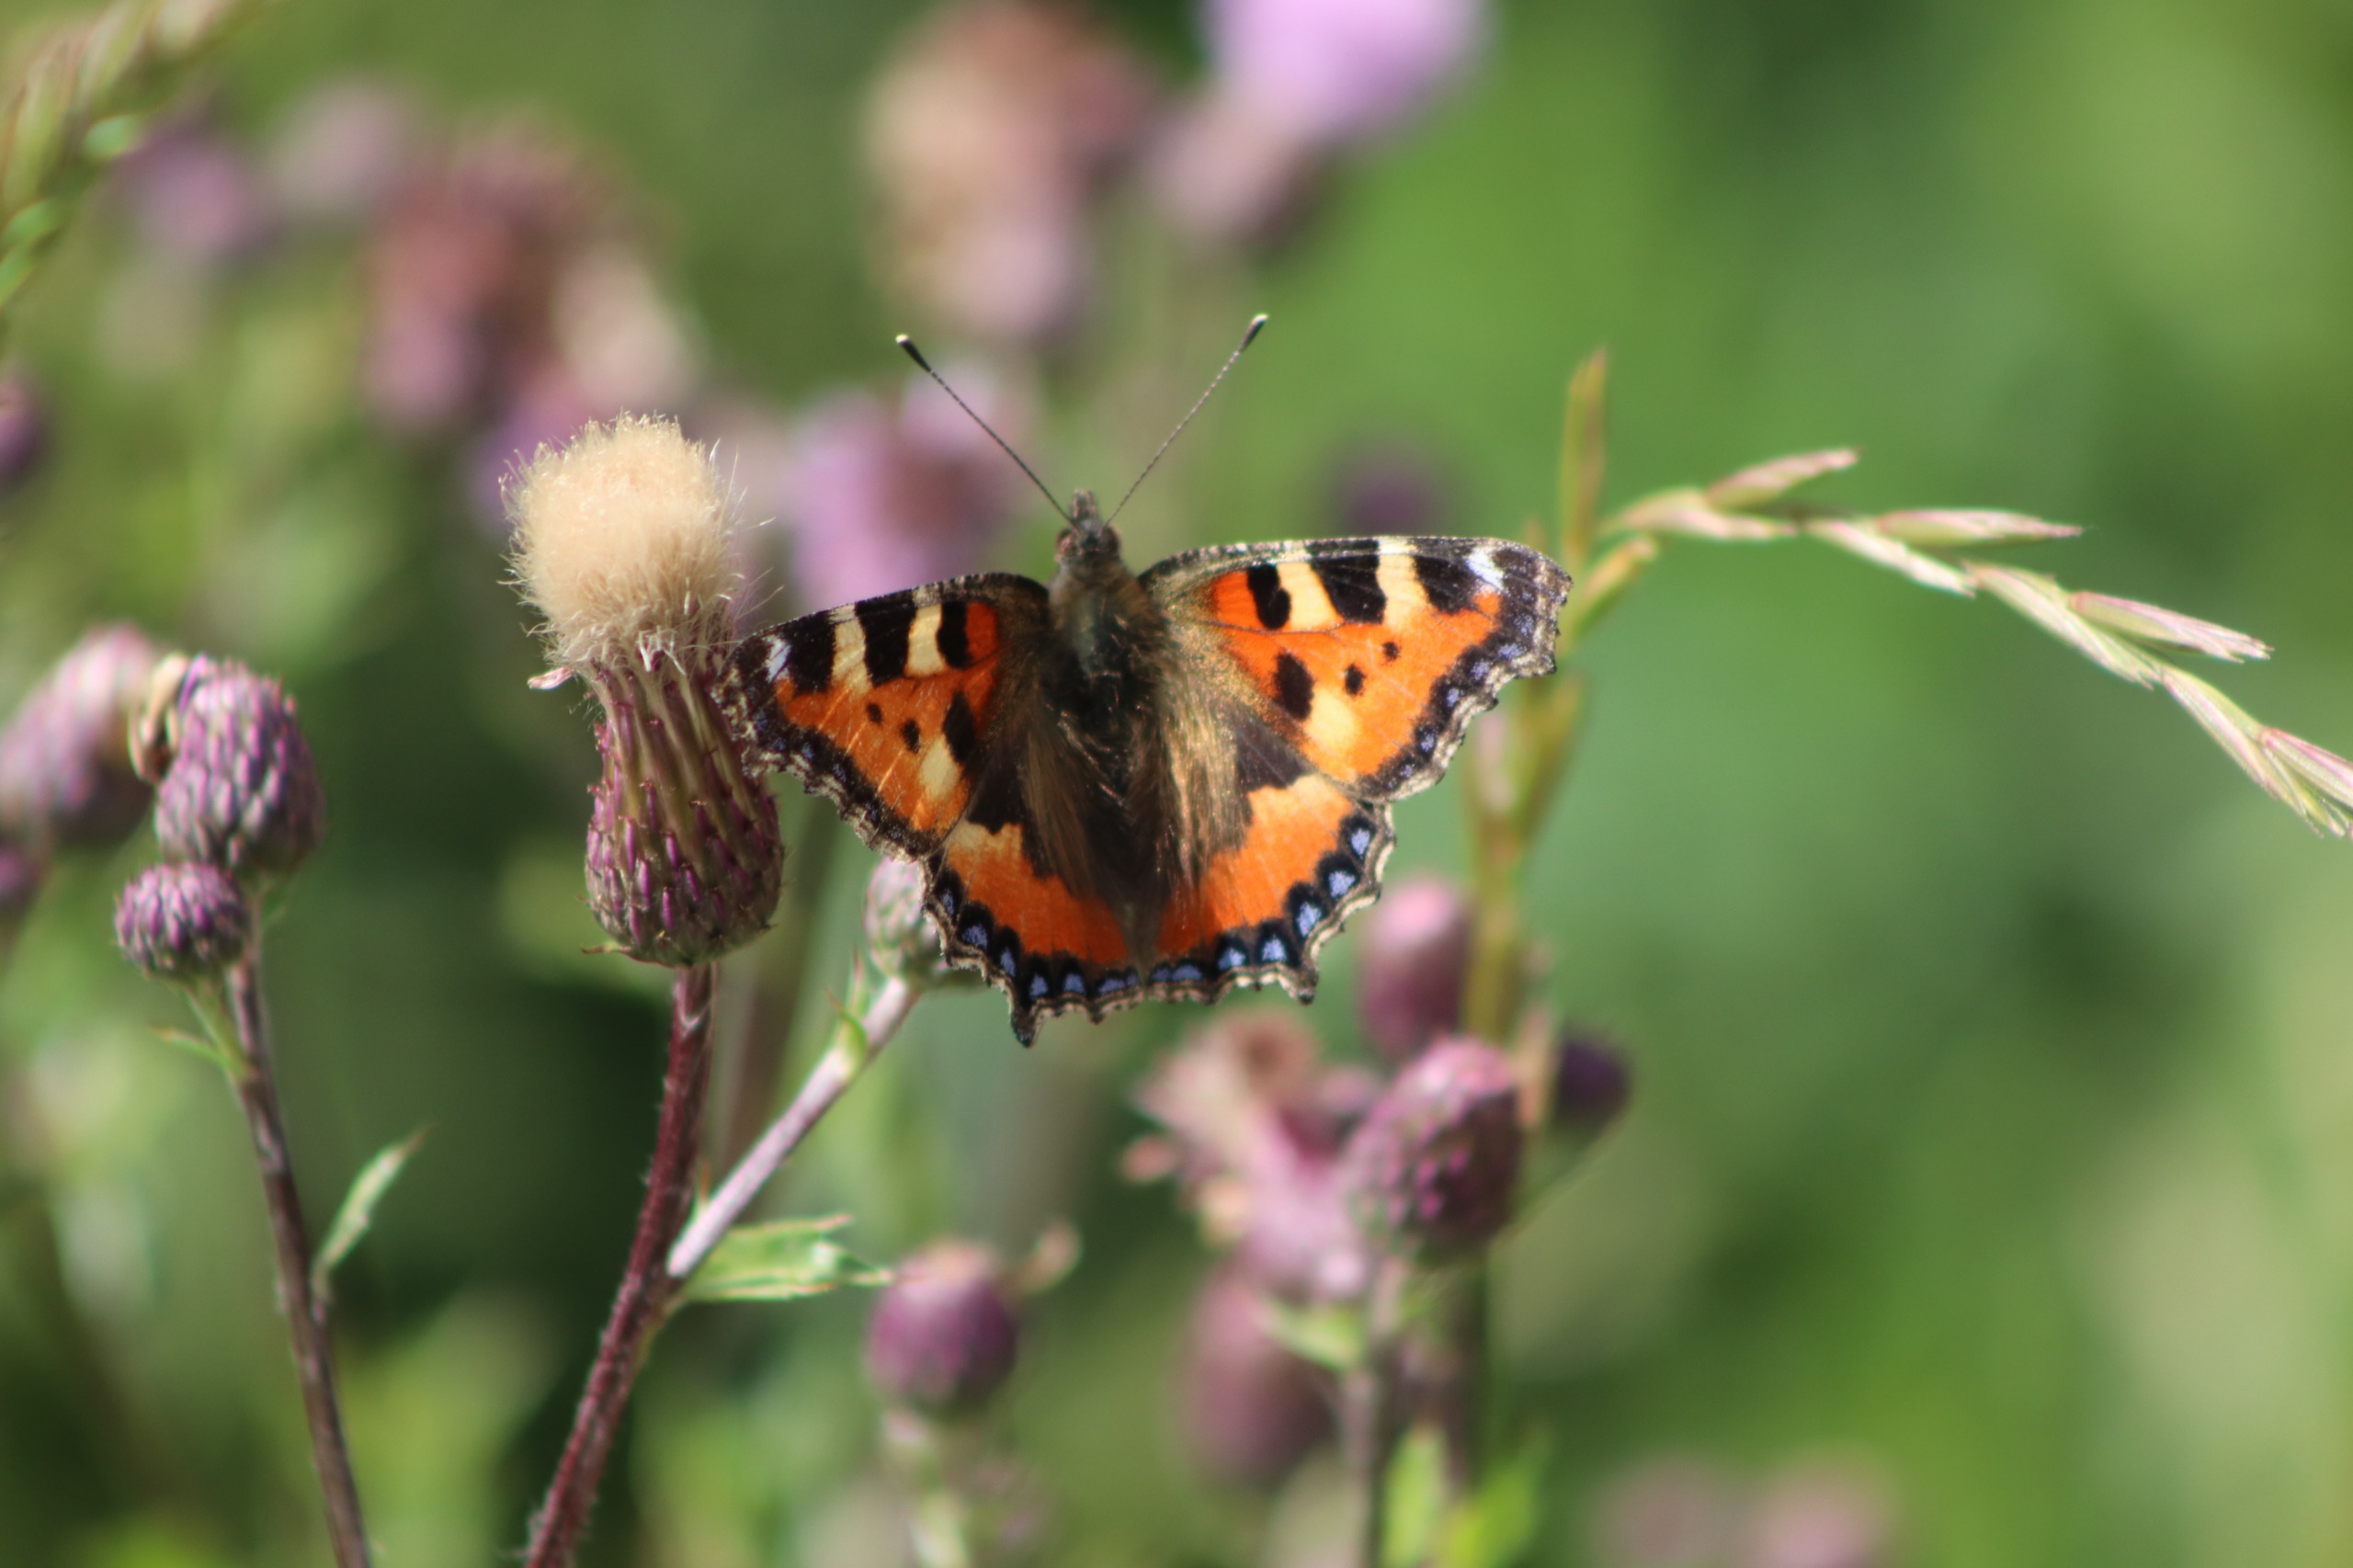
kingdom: Animalia
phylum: Arthropoda
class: Insecta
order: Lepidoptera
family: Nymphalidae
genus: Aglais
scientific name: Aglais urticae
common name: Nældens takvinge
